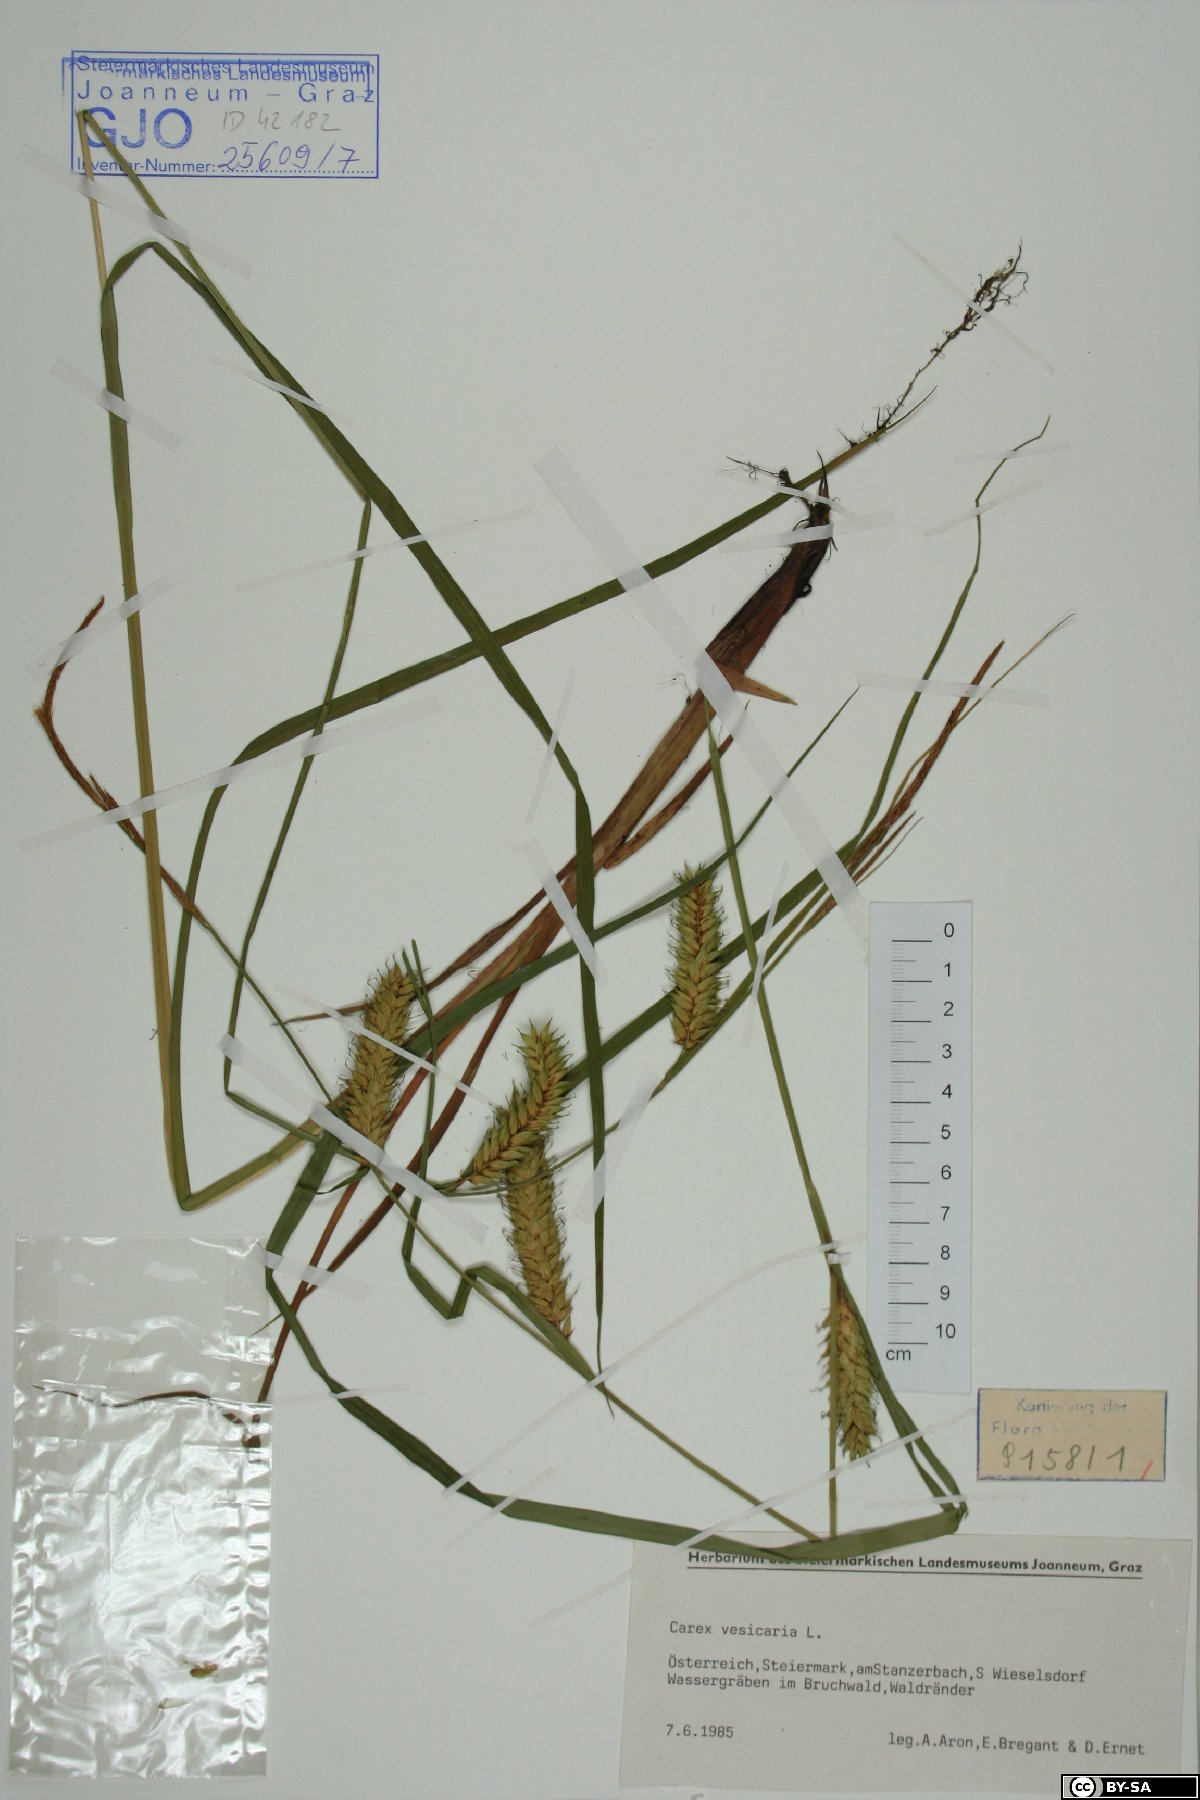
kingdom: Plantae
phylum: Tracheophyta
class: Liliopsida
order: Poales
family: Cyperaceae
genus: Carex
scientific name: Carex vesicaria
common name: Bladder-sedge
